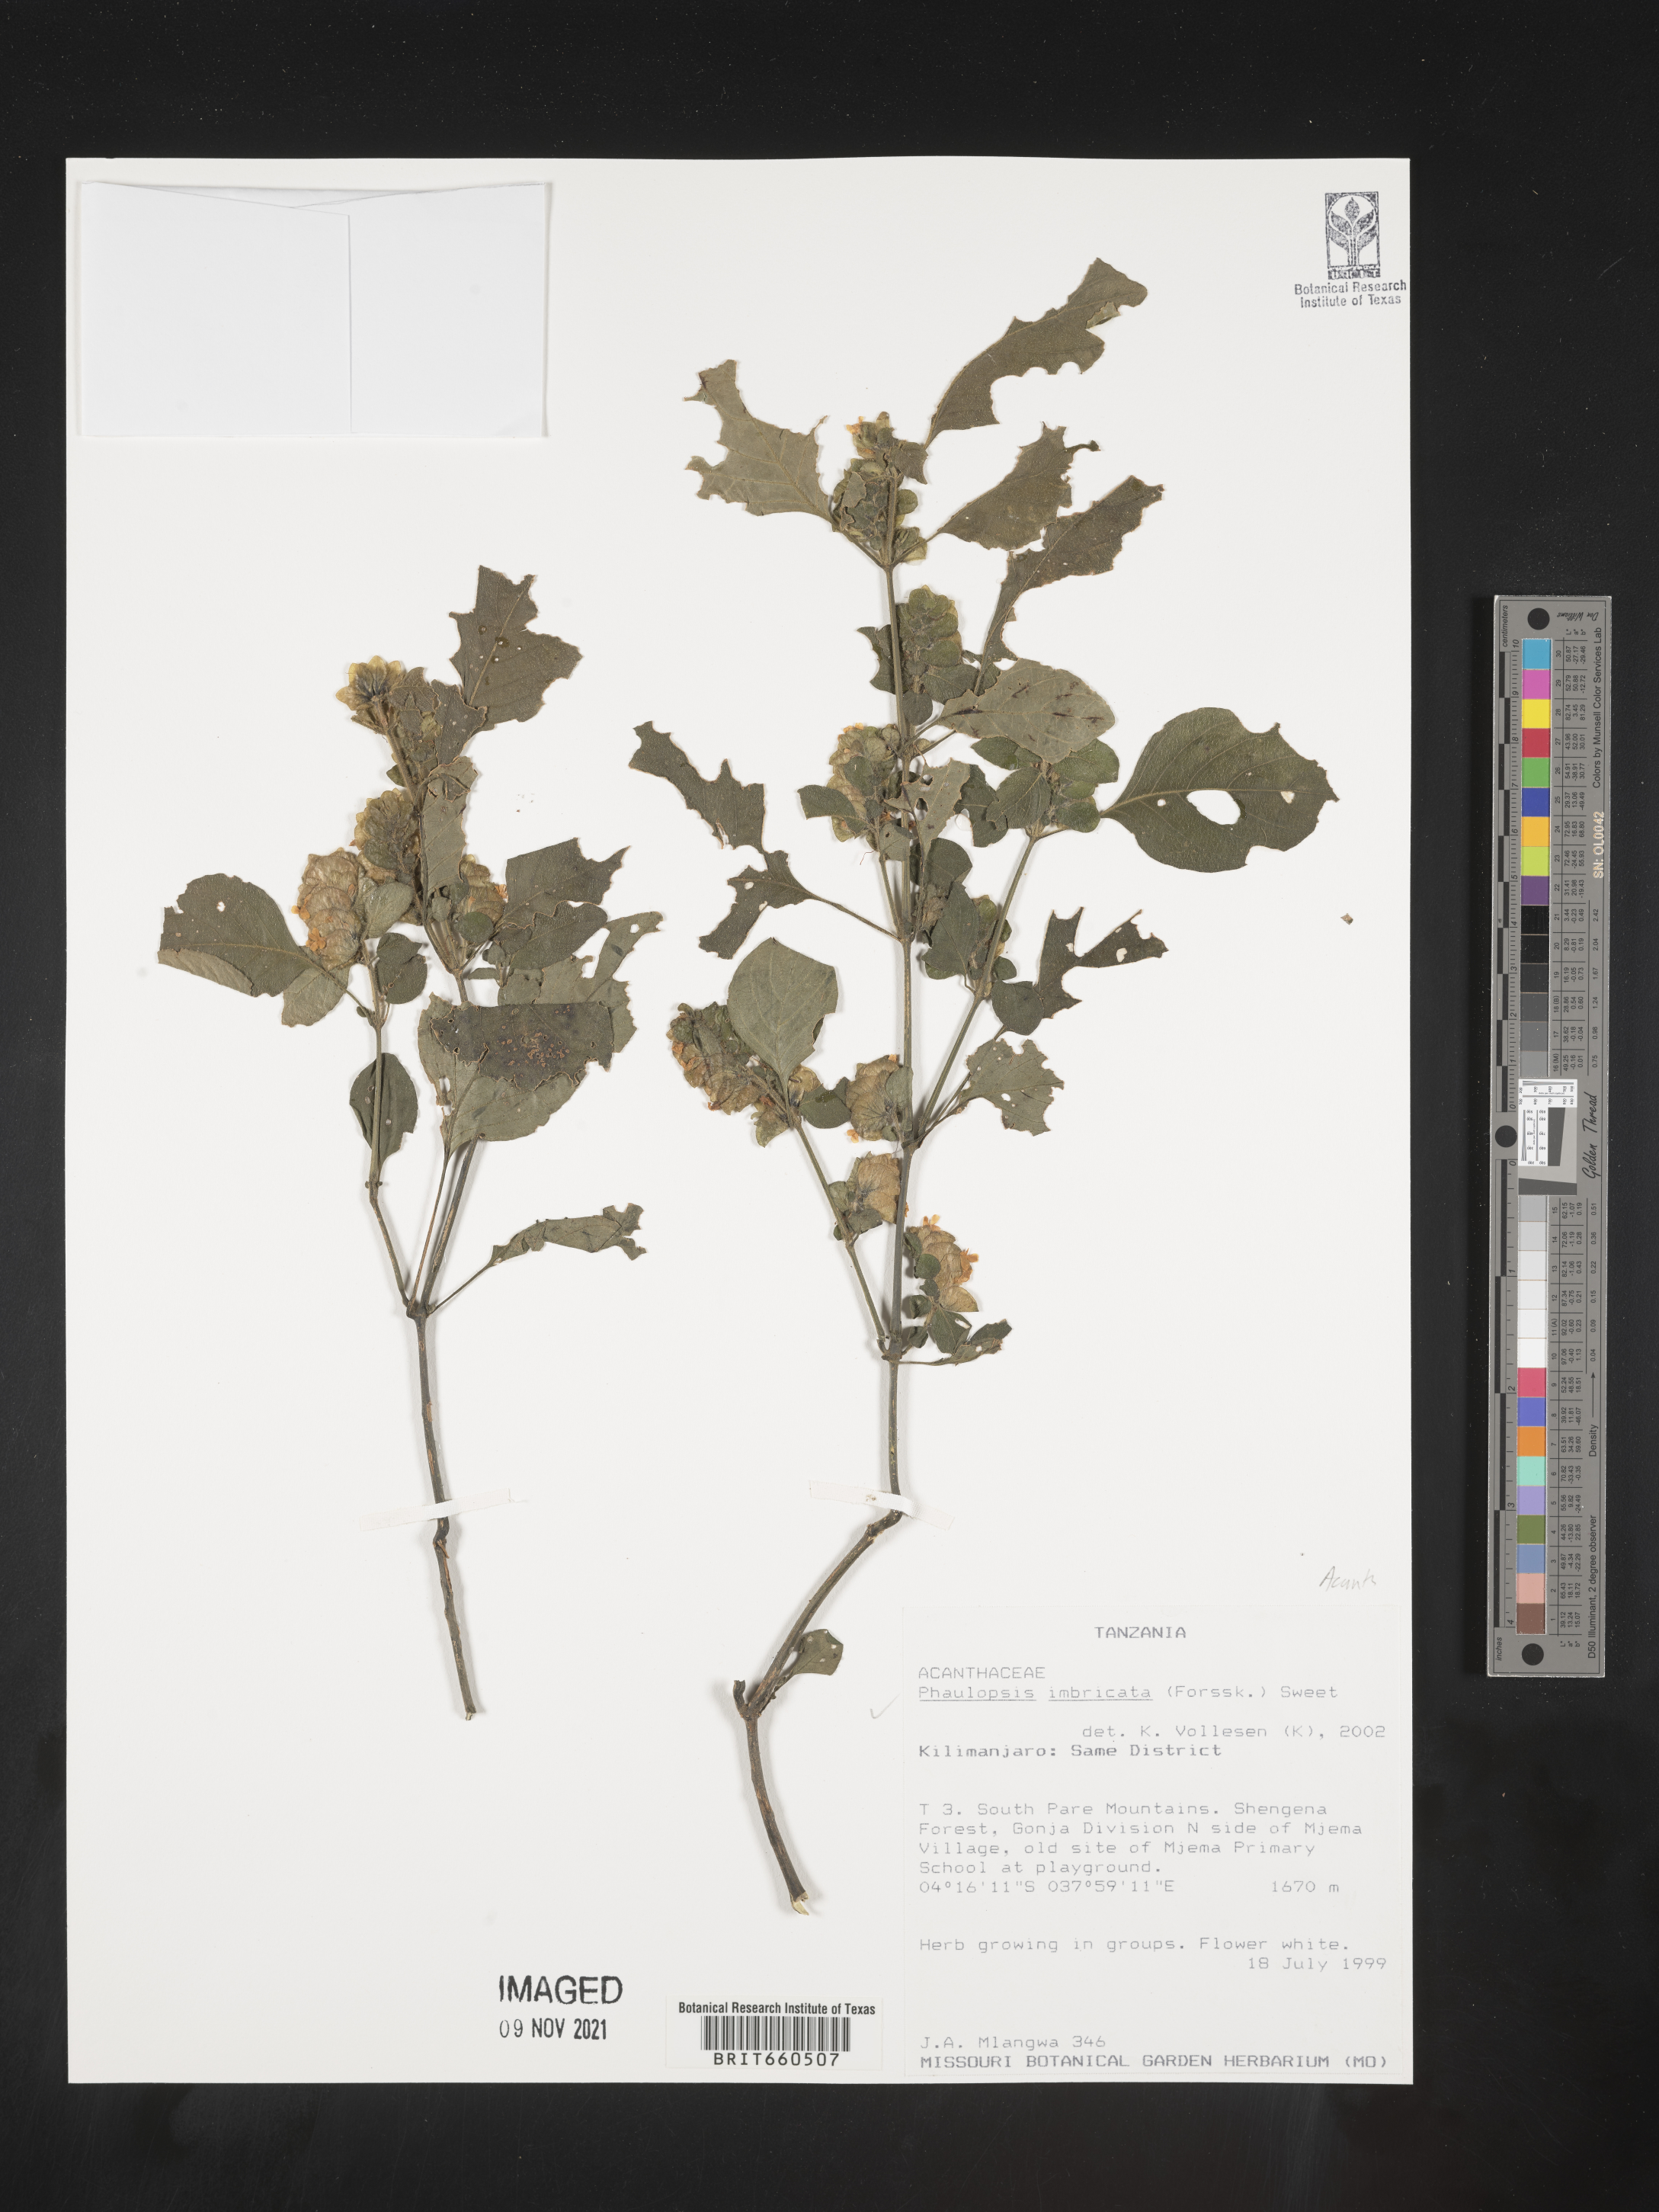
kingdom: Plantae
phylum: Tracheophyta
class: Magnoliopsida
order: Lamiales
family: Acanthaceae
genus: Phaulopsis
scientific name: Phaulopsis
